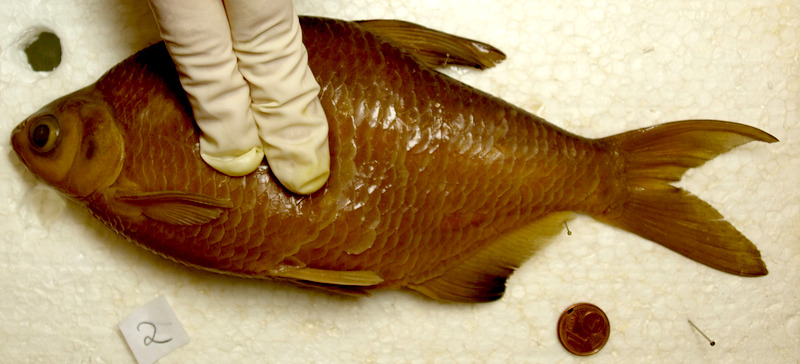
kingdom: Animalia
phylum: Chordata
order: Cypriniformes
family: Cyprinidae
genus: Blicca
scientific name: Blicca bjoerkna
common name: White bream
